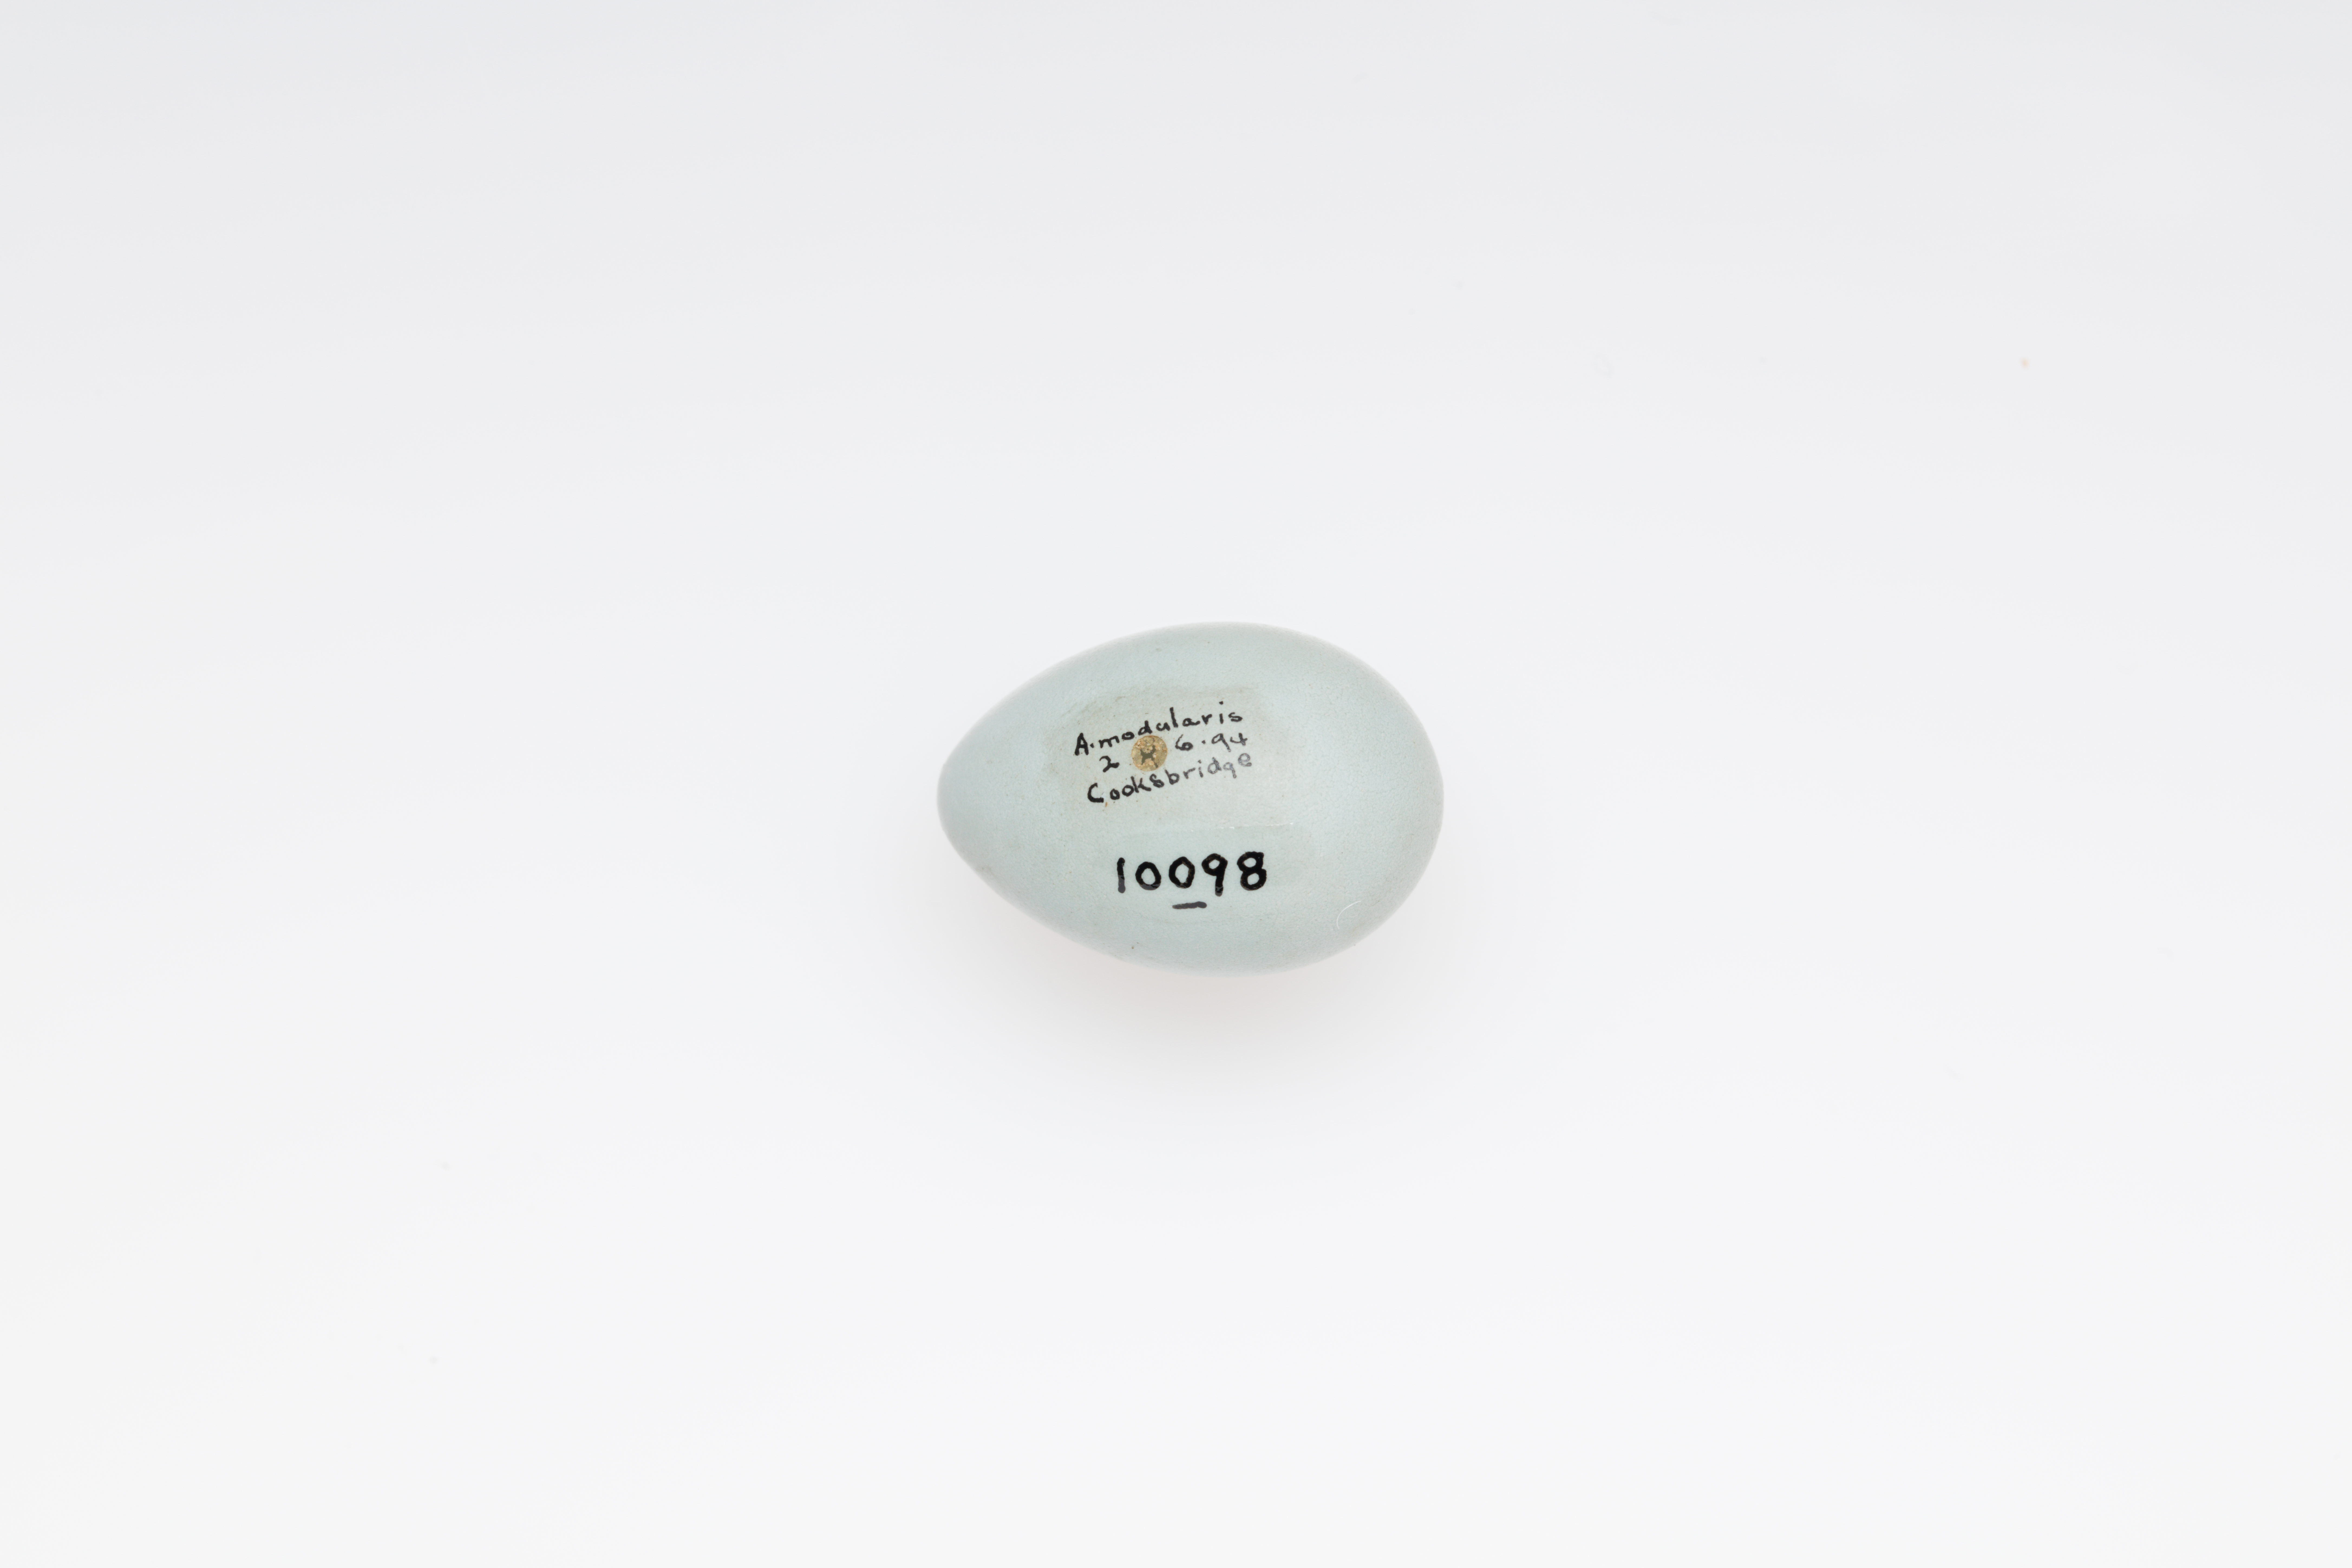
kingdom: Animalia
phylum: Chordata
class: Aves
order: Passeriformes
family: Prunellidae
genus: Prunella
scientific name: Prunella modularis
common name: Dunnock
